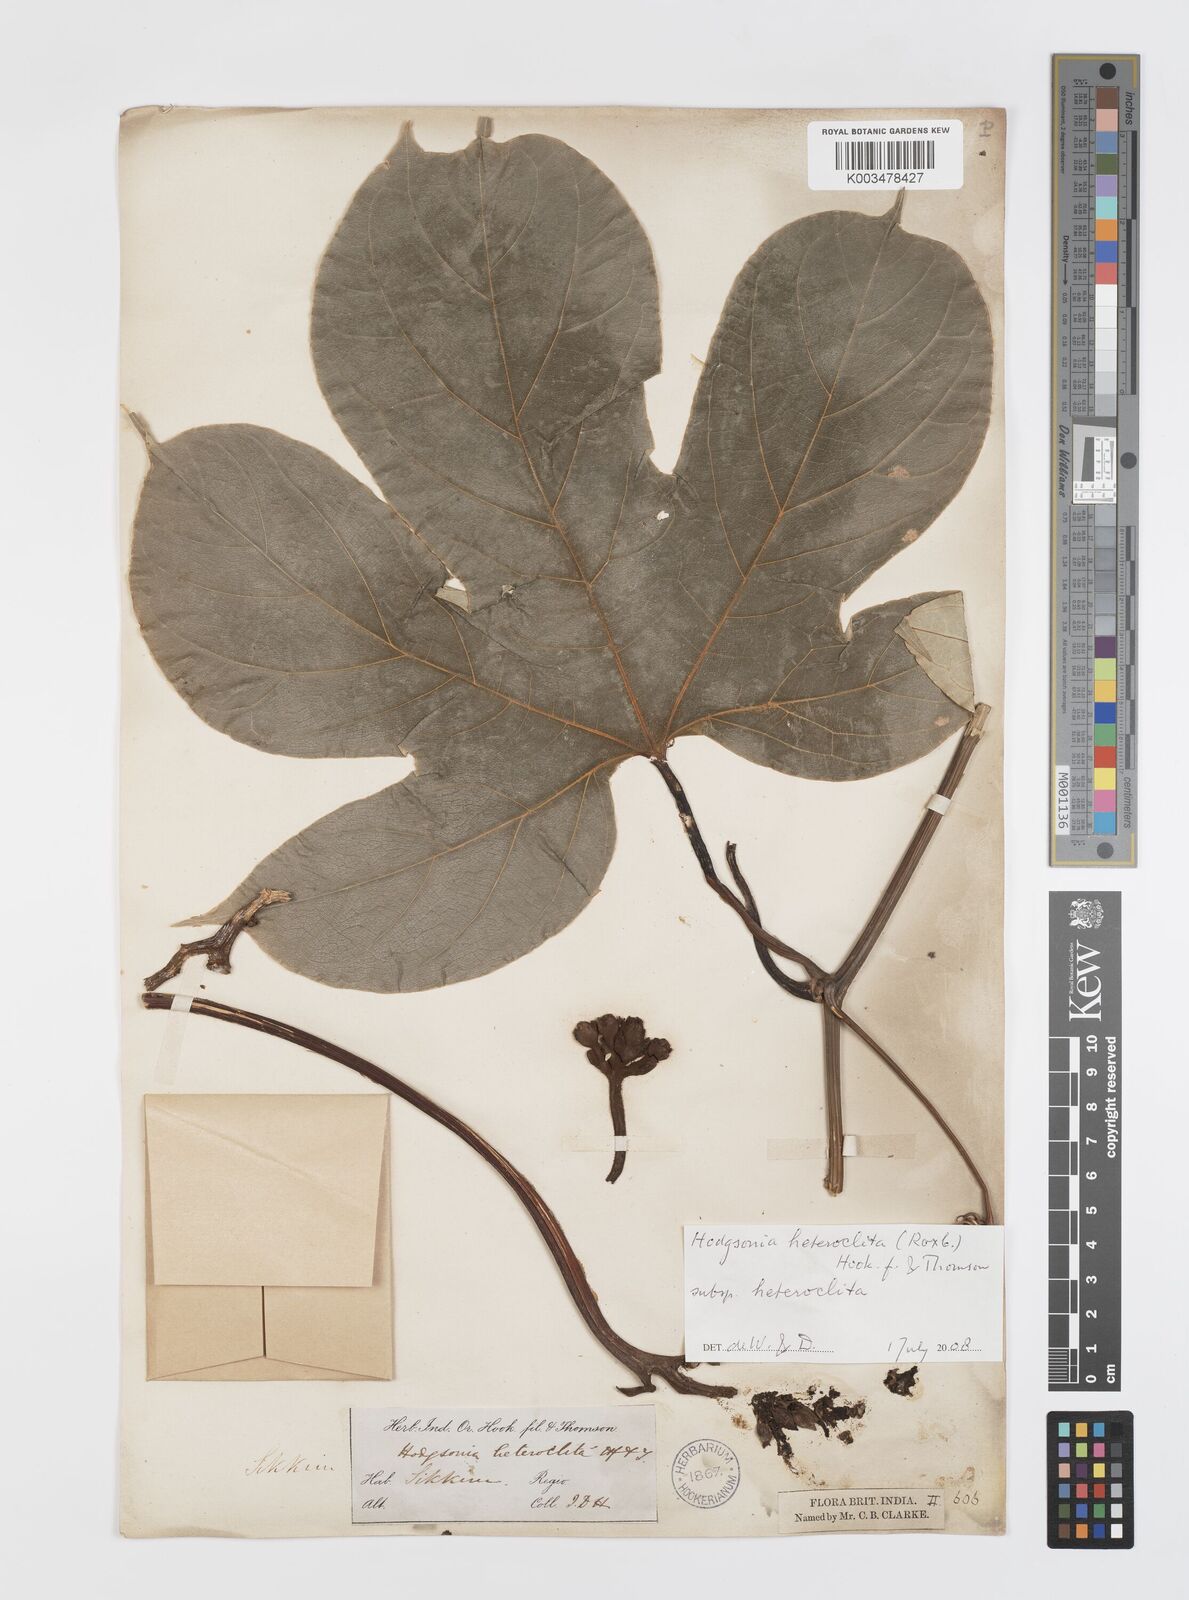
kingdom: Plantae
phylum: Tracheophyta
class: Magnoliopsida
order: Cucurbitales
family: Cucurbitaceae
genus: Hodgsonia
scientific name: Hodgsonia macrocarpa
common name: Chinese lardfruit
